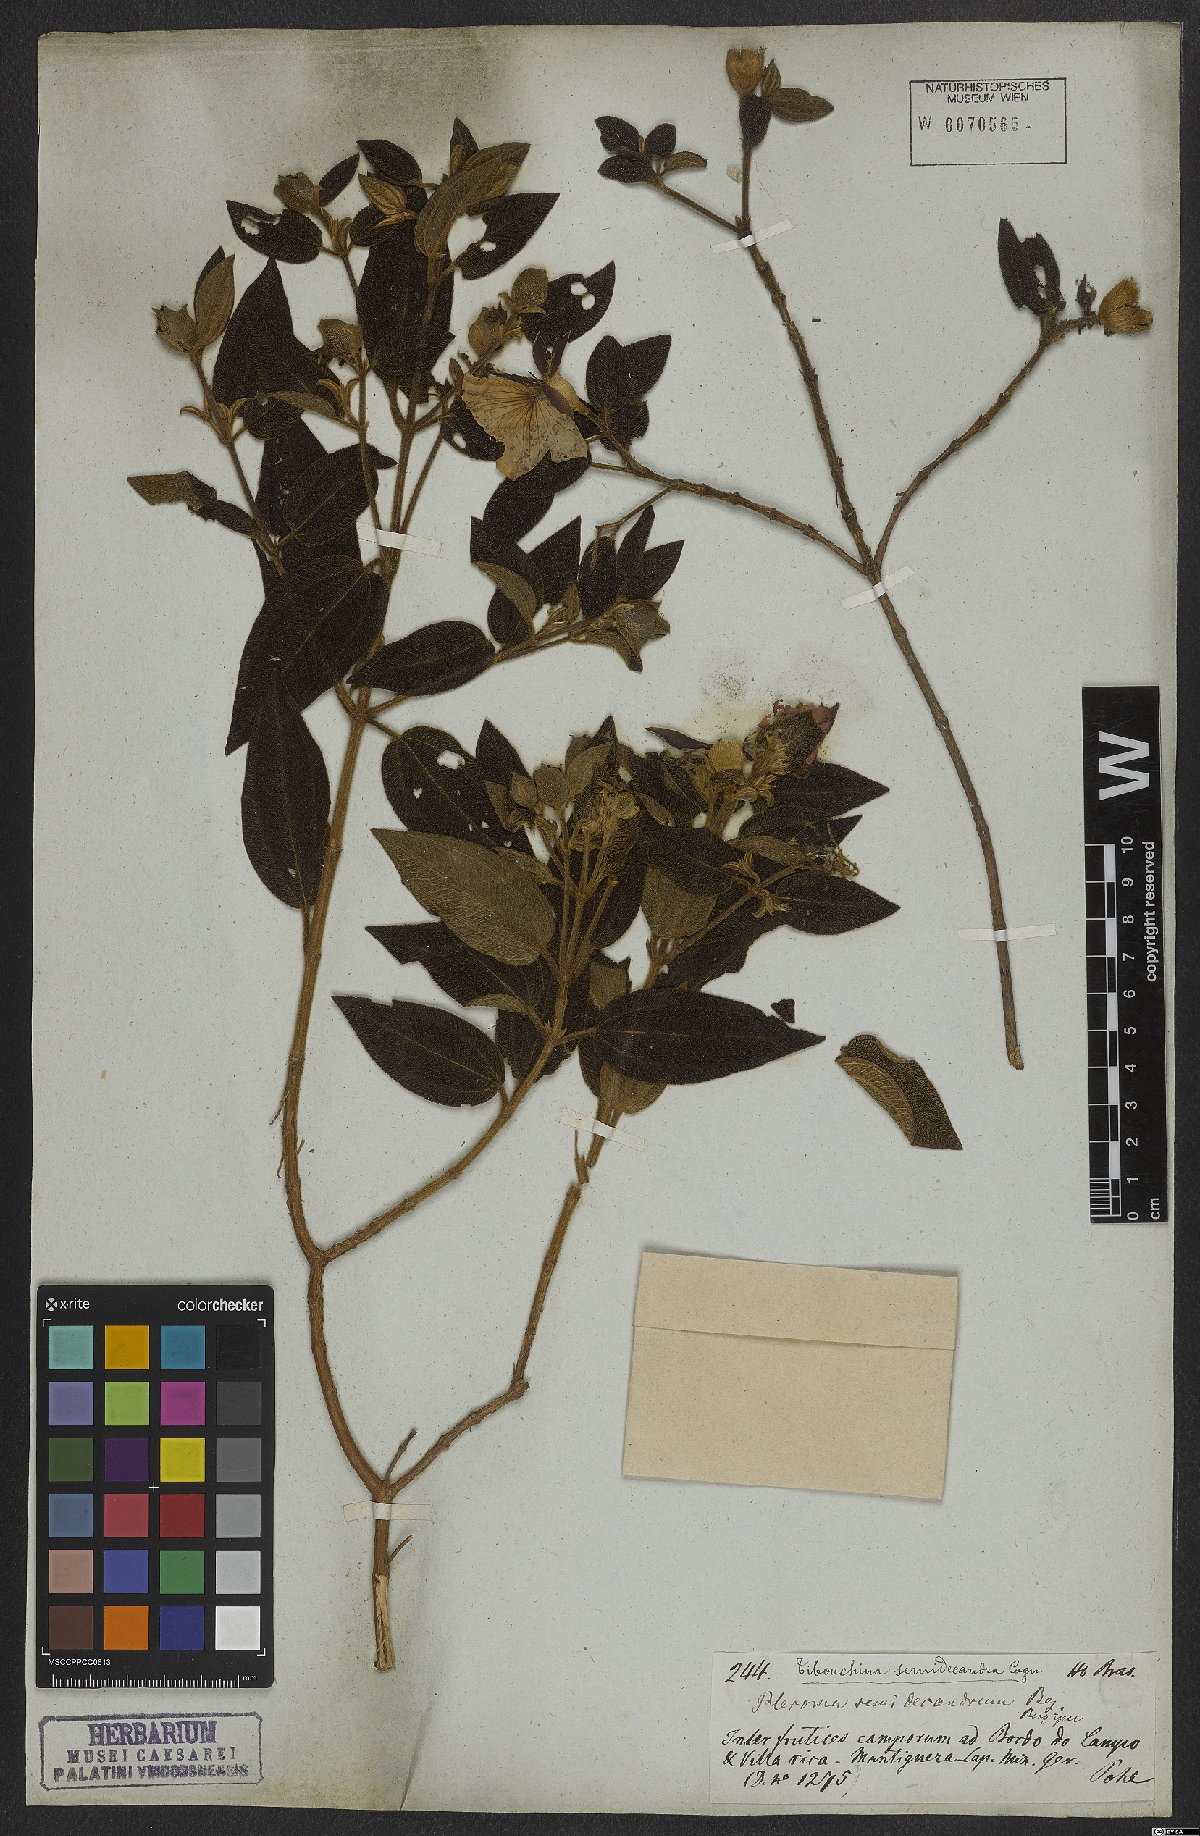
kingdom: Plantae
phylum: Tracheophyta
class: Magnoliopsida
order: Myrtales
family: Melastomataceae
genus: Pleroma
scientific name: Pleroma semidecandrum
